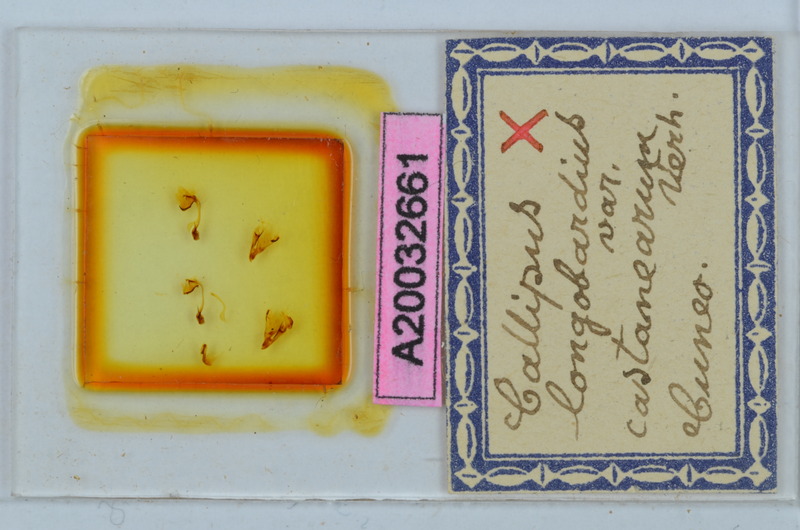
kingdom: Animalia
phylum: Arthropoda
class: Diplopoda
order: Callipodida
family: Callipodidae
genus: Callipus
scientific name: Callipus foetidissimus
